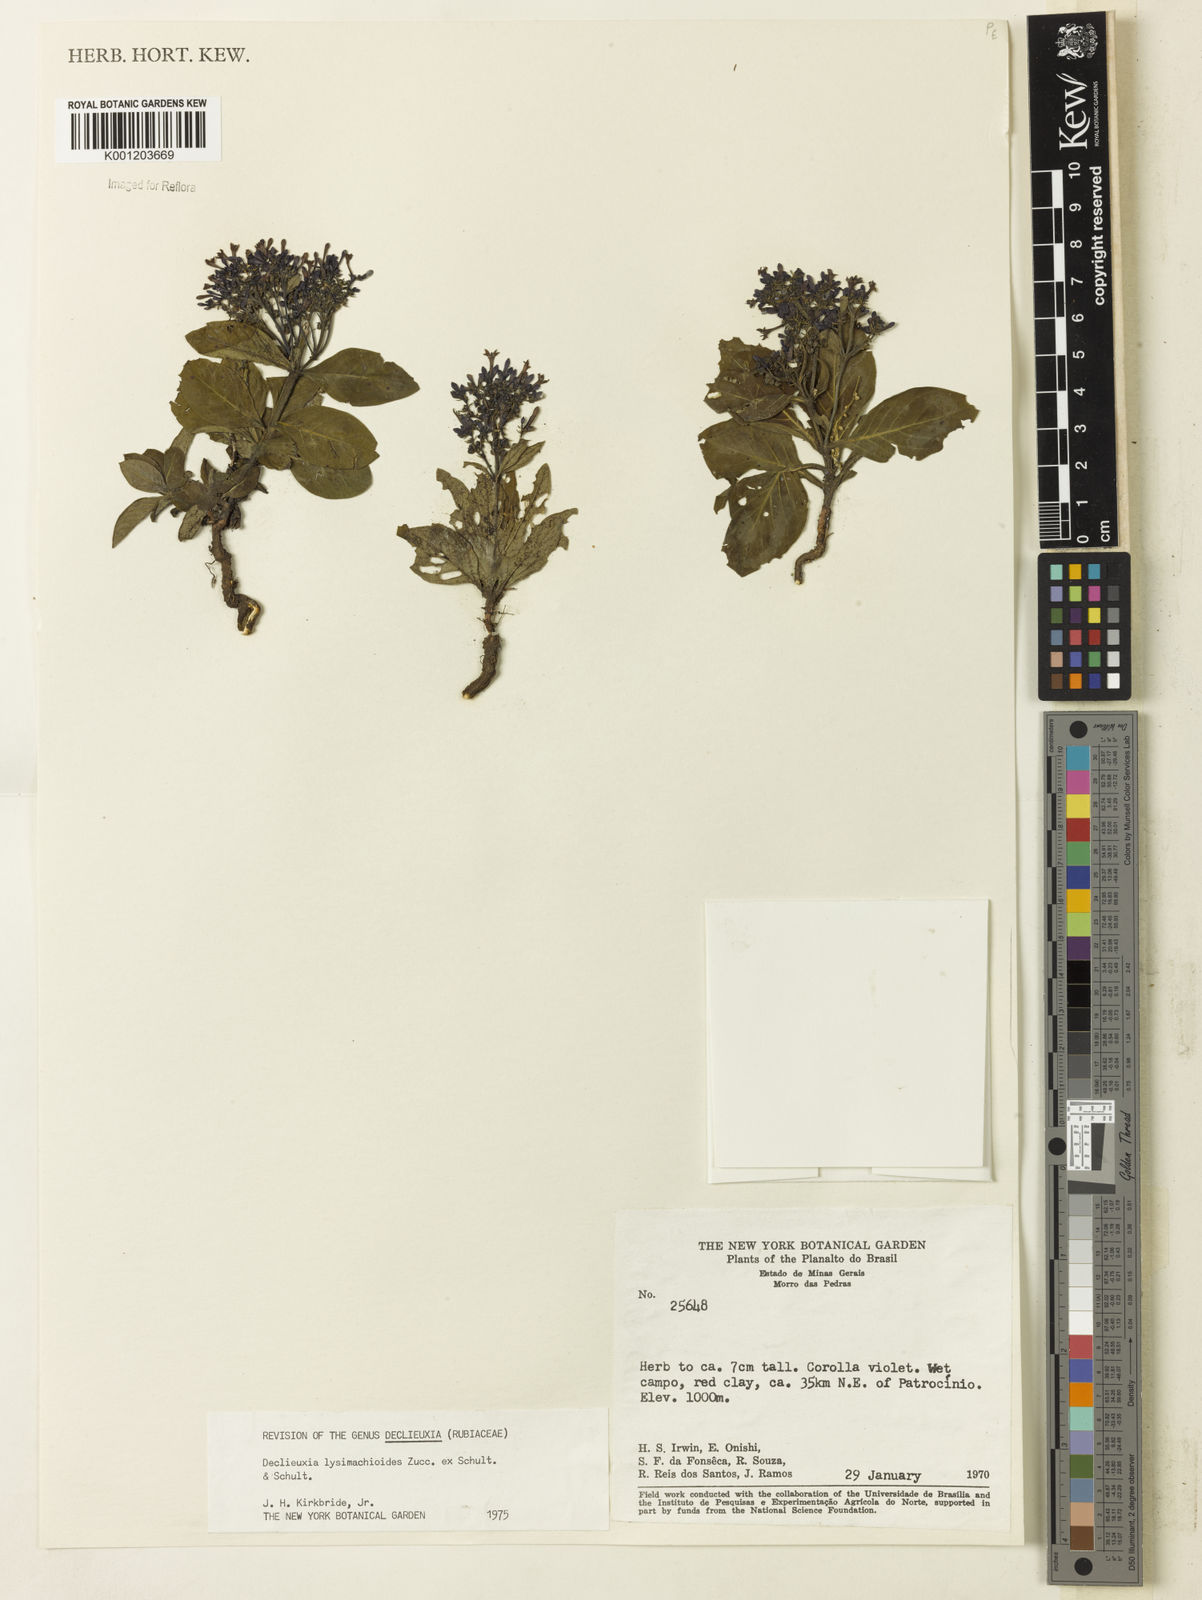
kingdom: Plantae
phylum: Tracheophyta
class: Magnoliopsida
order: Gentianales
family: Rubiaceae
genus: Declieuxia
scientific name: Declieuxia
